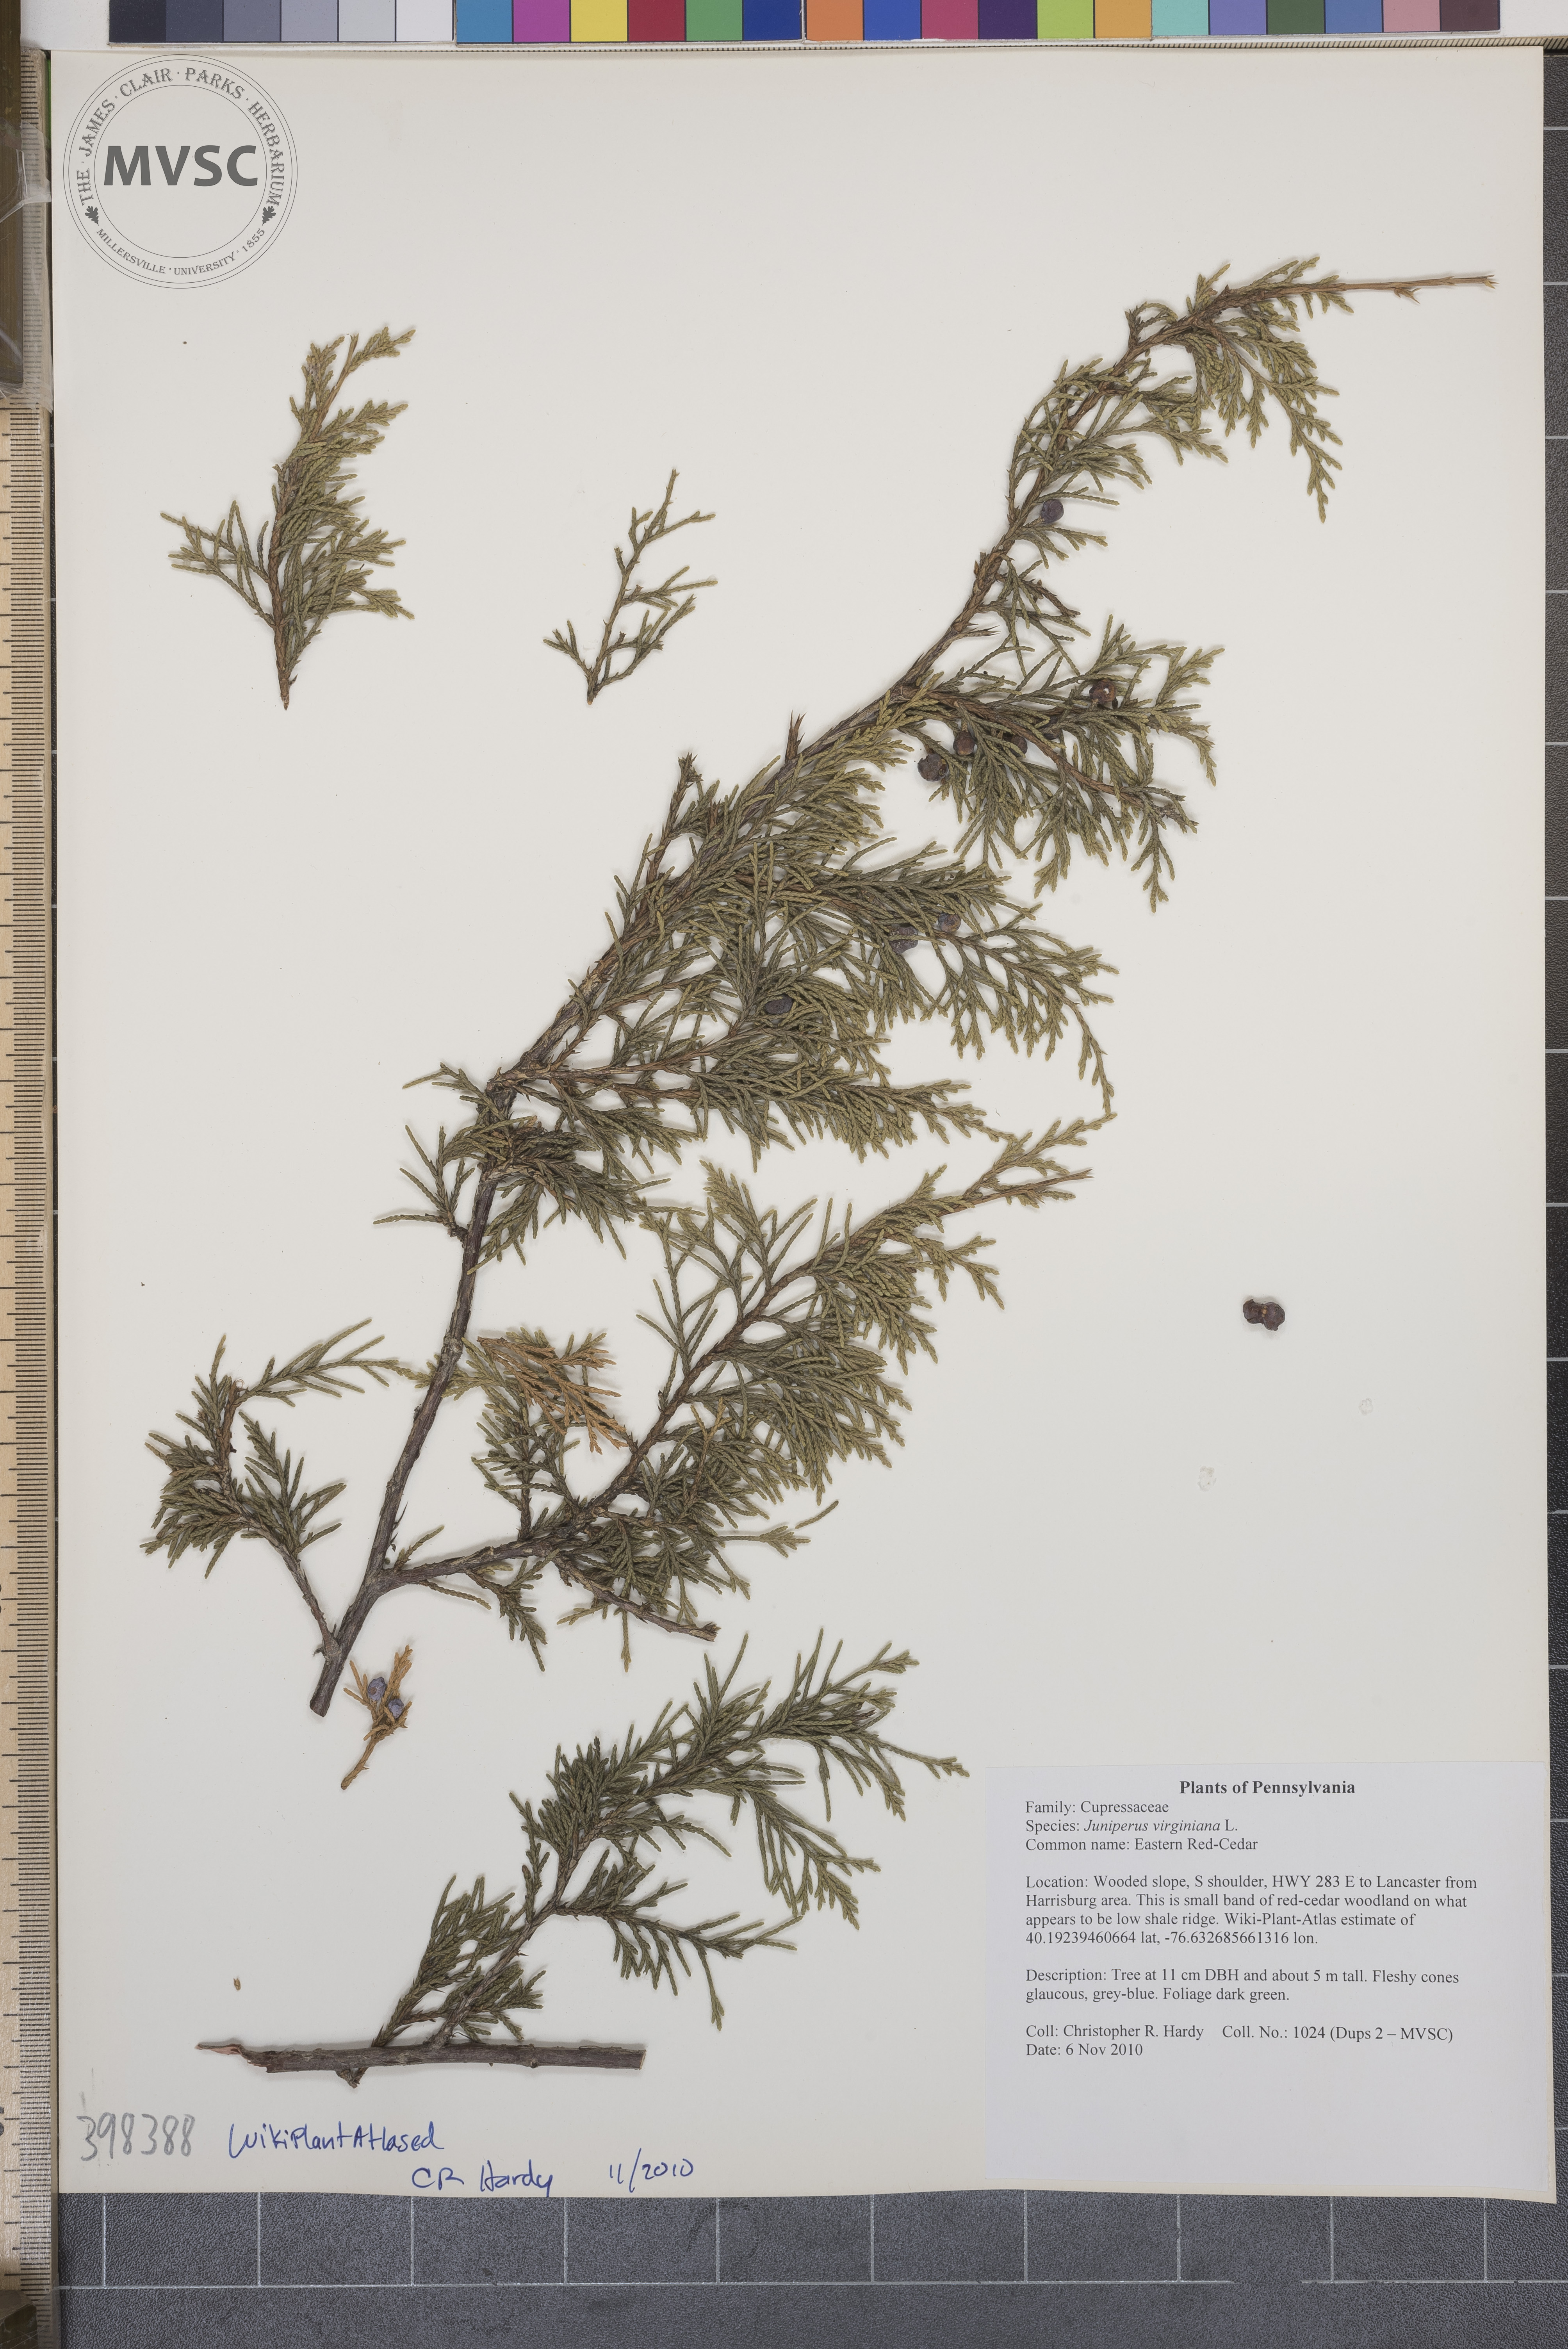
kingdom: Plantae
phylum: Tracheophyta
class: Pinopsida
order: Pinales
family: Cupressaceae
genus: Juniperus
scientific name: Juniperus virginiana
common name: Eastern red-cedar
